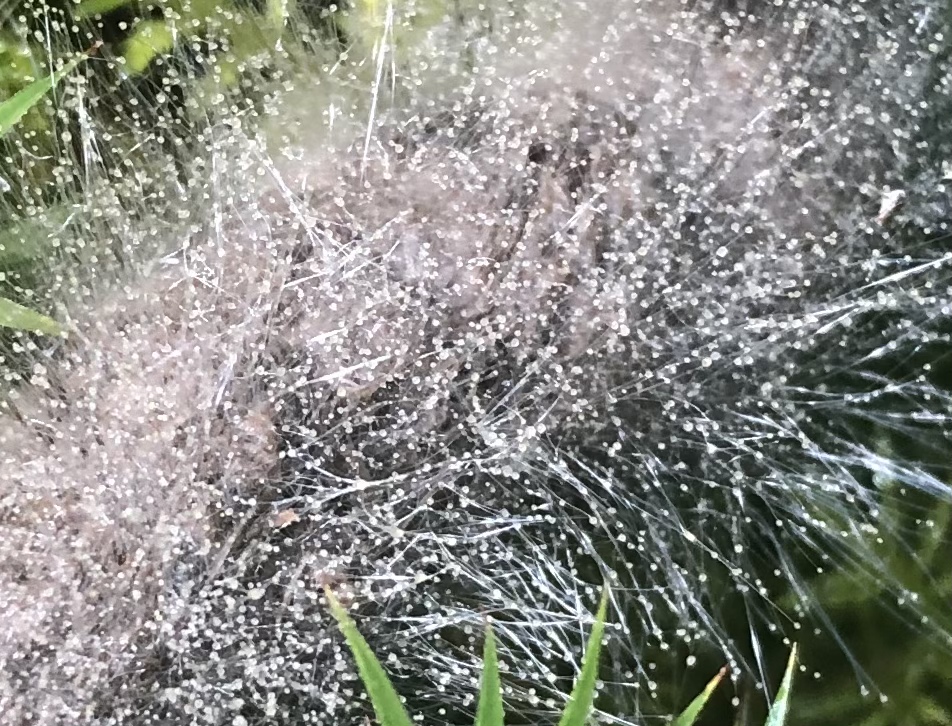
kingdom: Fungi
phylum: Mucoromycota
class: Mucoromycetes
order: Mucorales
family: Mucoraceae
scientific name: Mucoraceae
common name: mugfamilien
